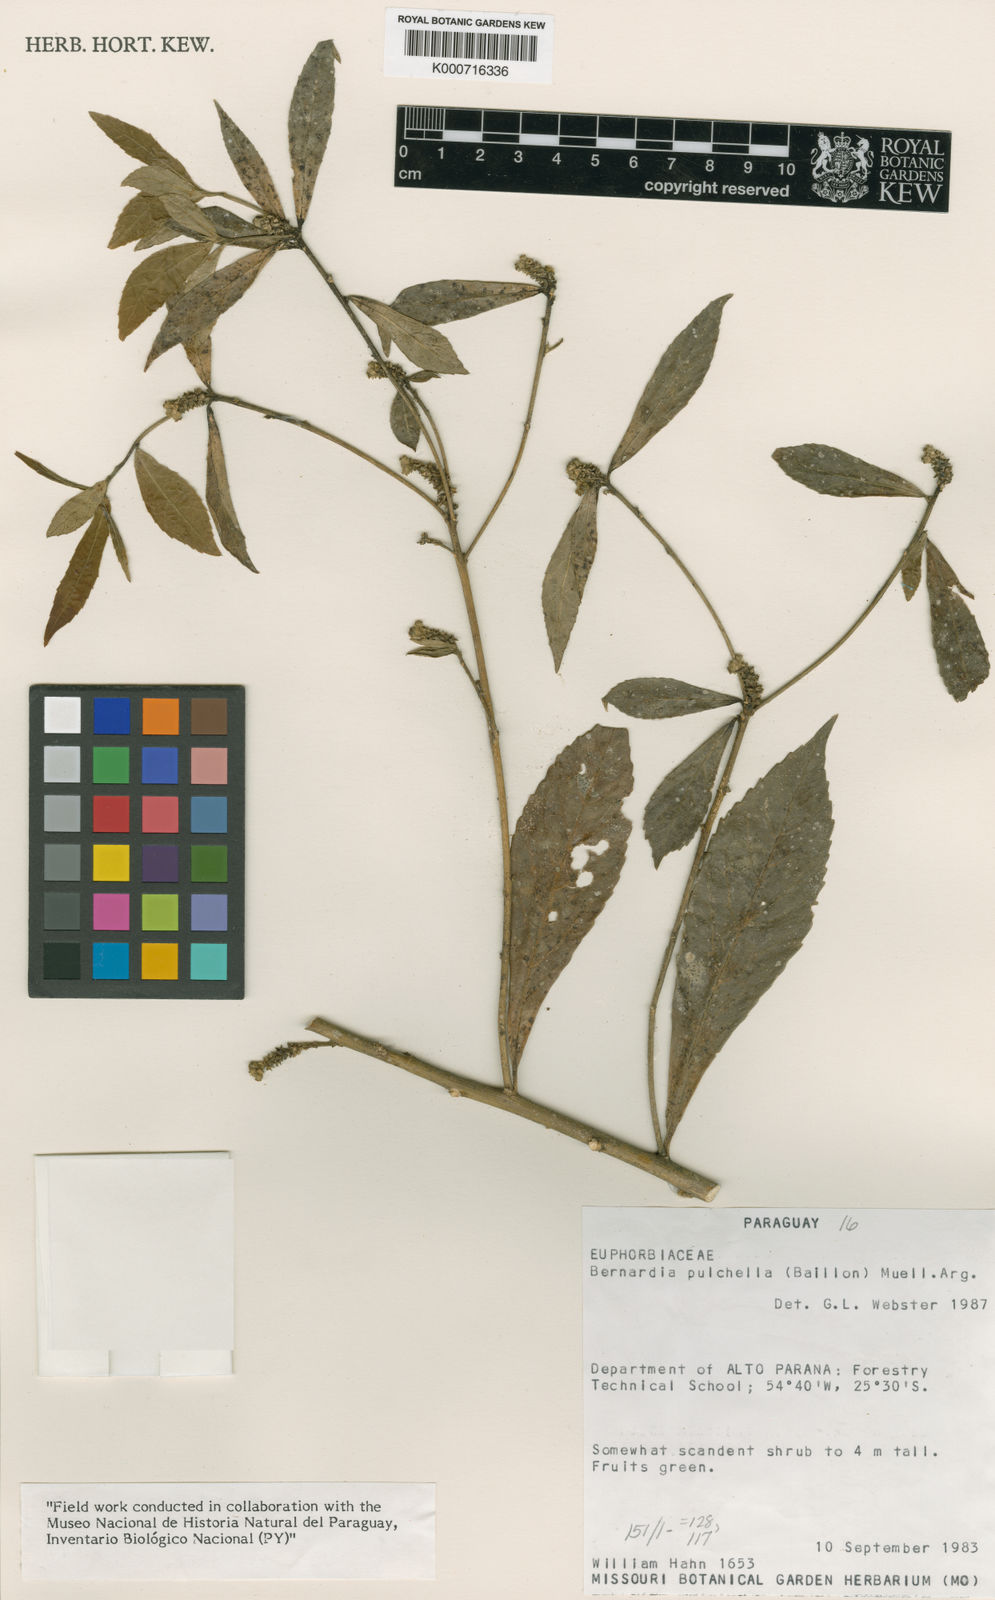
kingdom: Plantae
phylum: Tracheophyta
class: Magnoliopsida
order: Malpighiales
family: Euphorbiaceae
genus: Bernardia
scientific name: Bernardia
